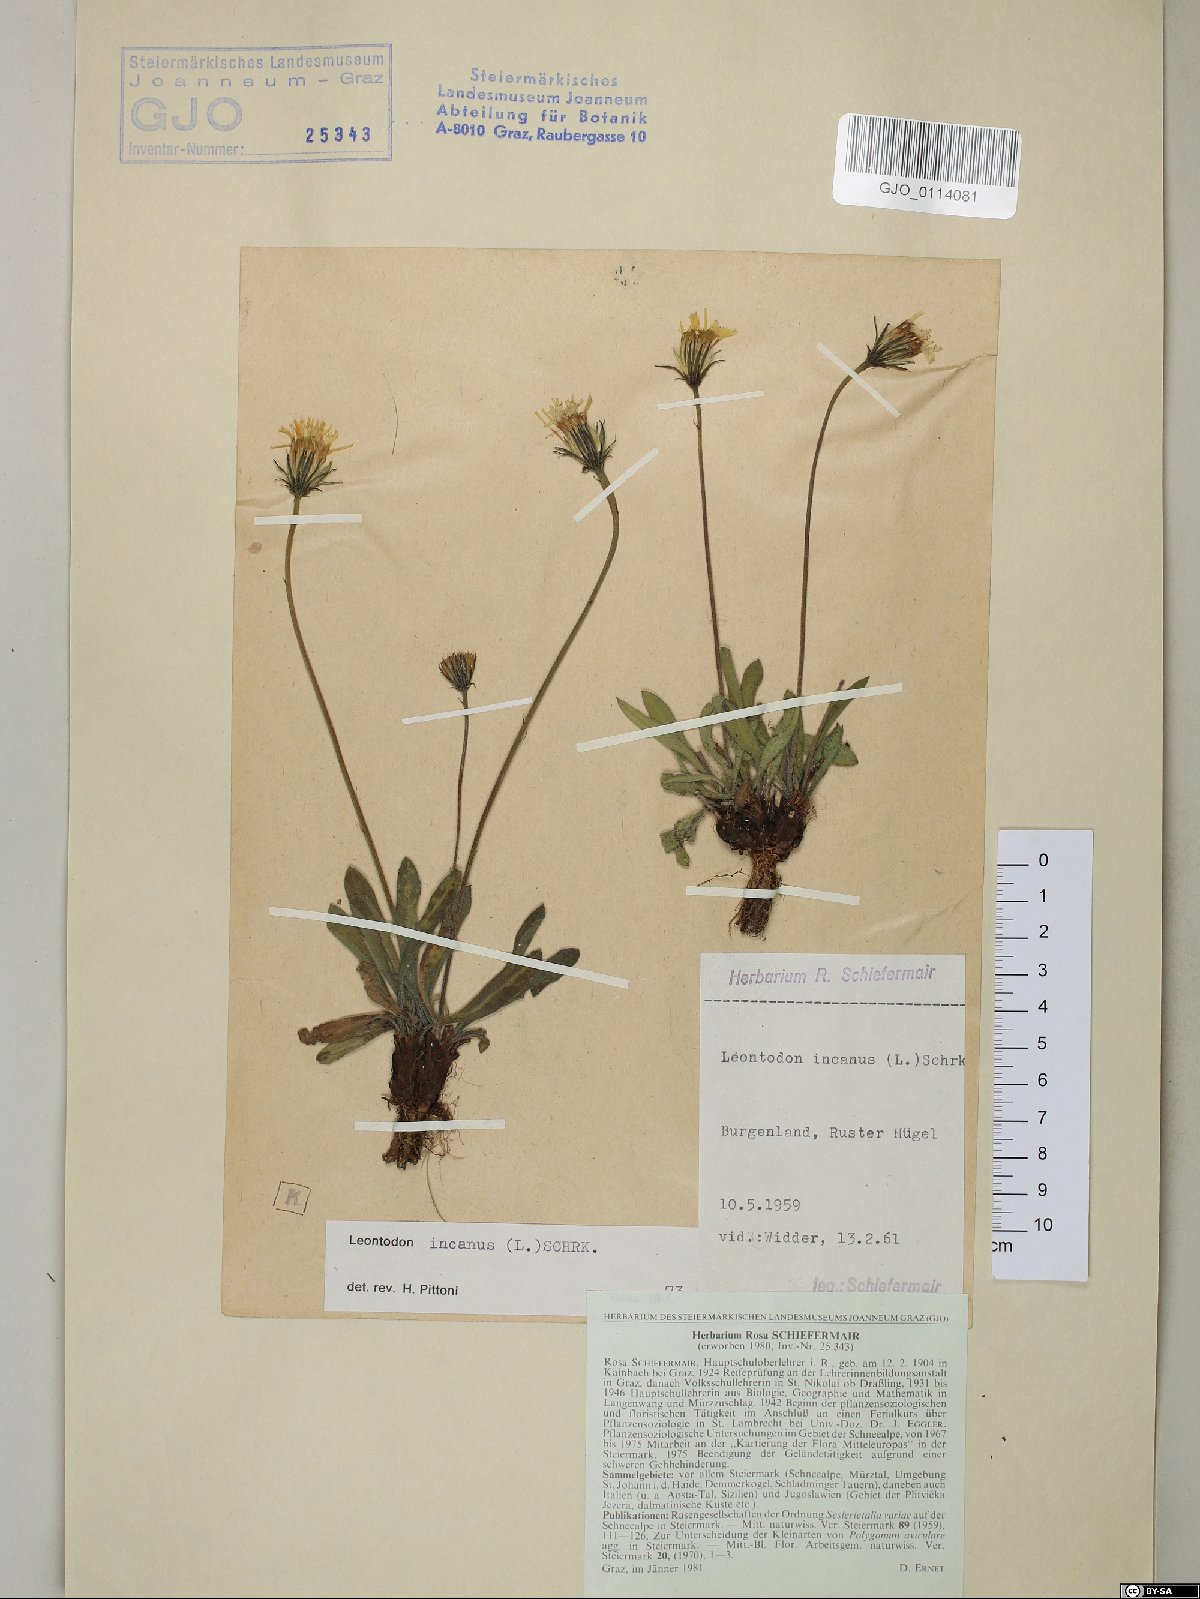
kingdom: Plantae
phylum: Tracheophyta
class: Magnoliopsida
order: Asterales
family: Asteraceae
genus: Leontodon
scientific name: Leontodon incanus
